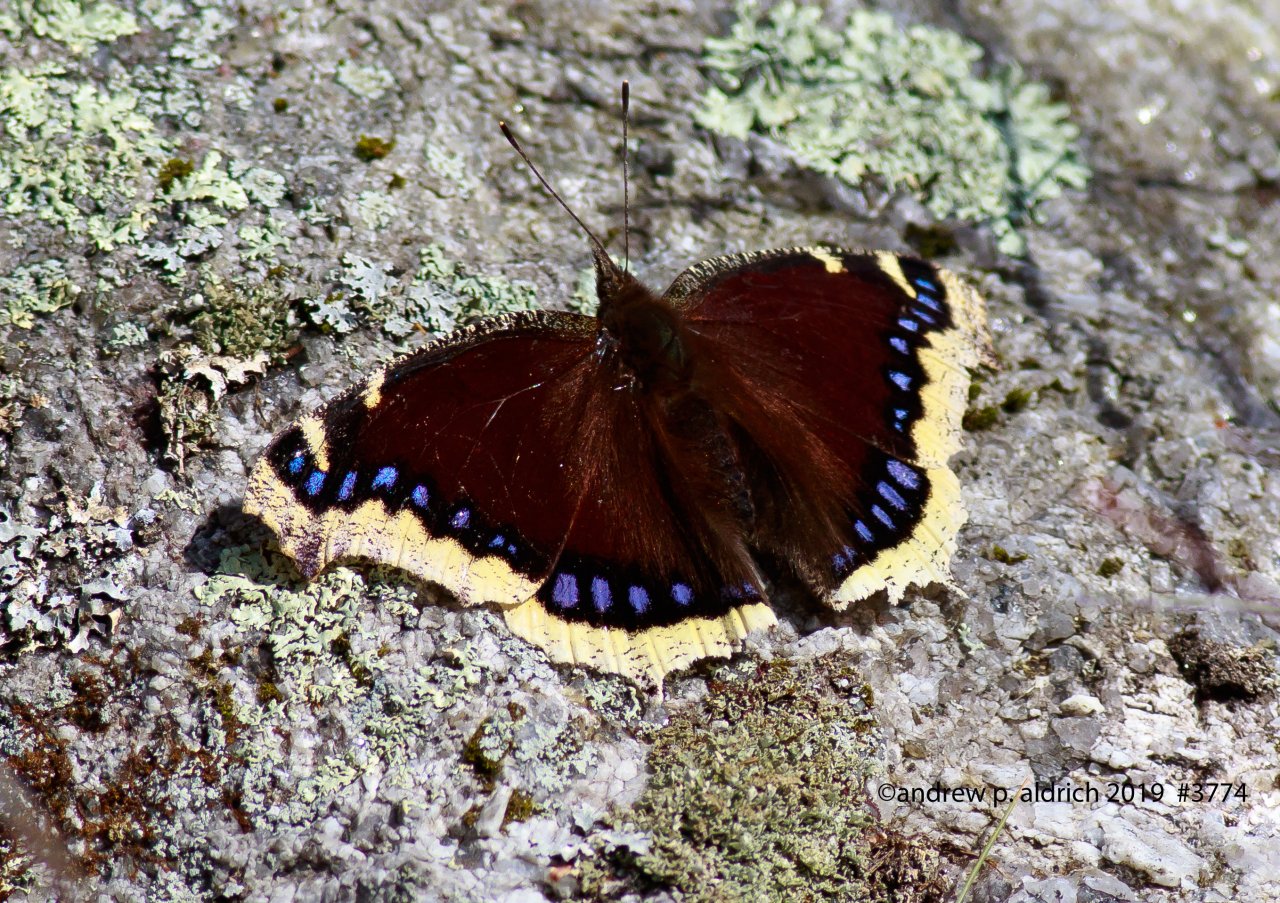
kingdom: Animalia
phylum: Arthropoda
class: Insecta
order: Lepidoptera
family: Nymphalidae
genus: Nymphalis
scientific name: Nymphalis antiopa
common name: Mourning Cloak
